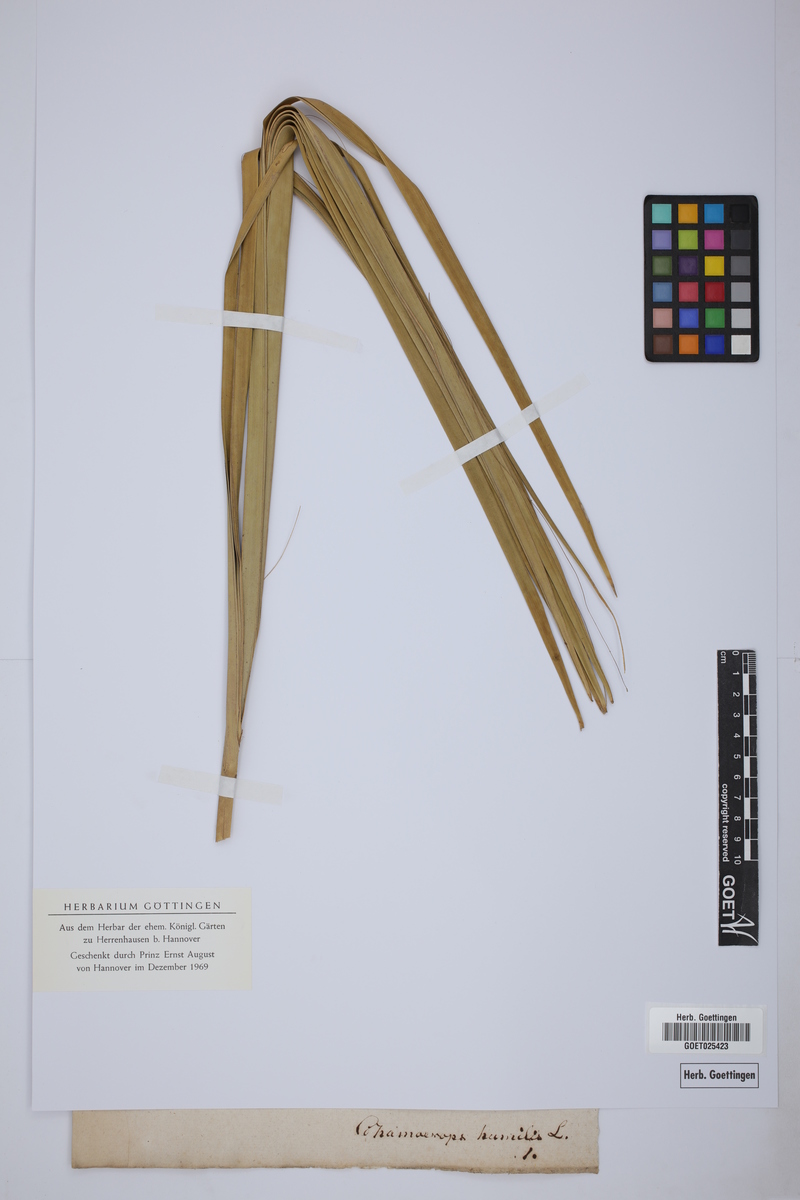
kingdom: Plantae
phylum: Tracheophyta
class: Liliopsida
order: Arecales
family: Arecaceae
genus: Chamaerops
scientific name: Chamaerops humilis
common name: Dwarf fan palm
